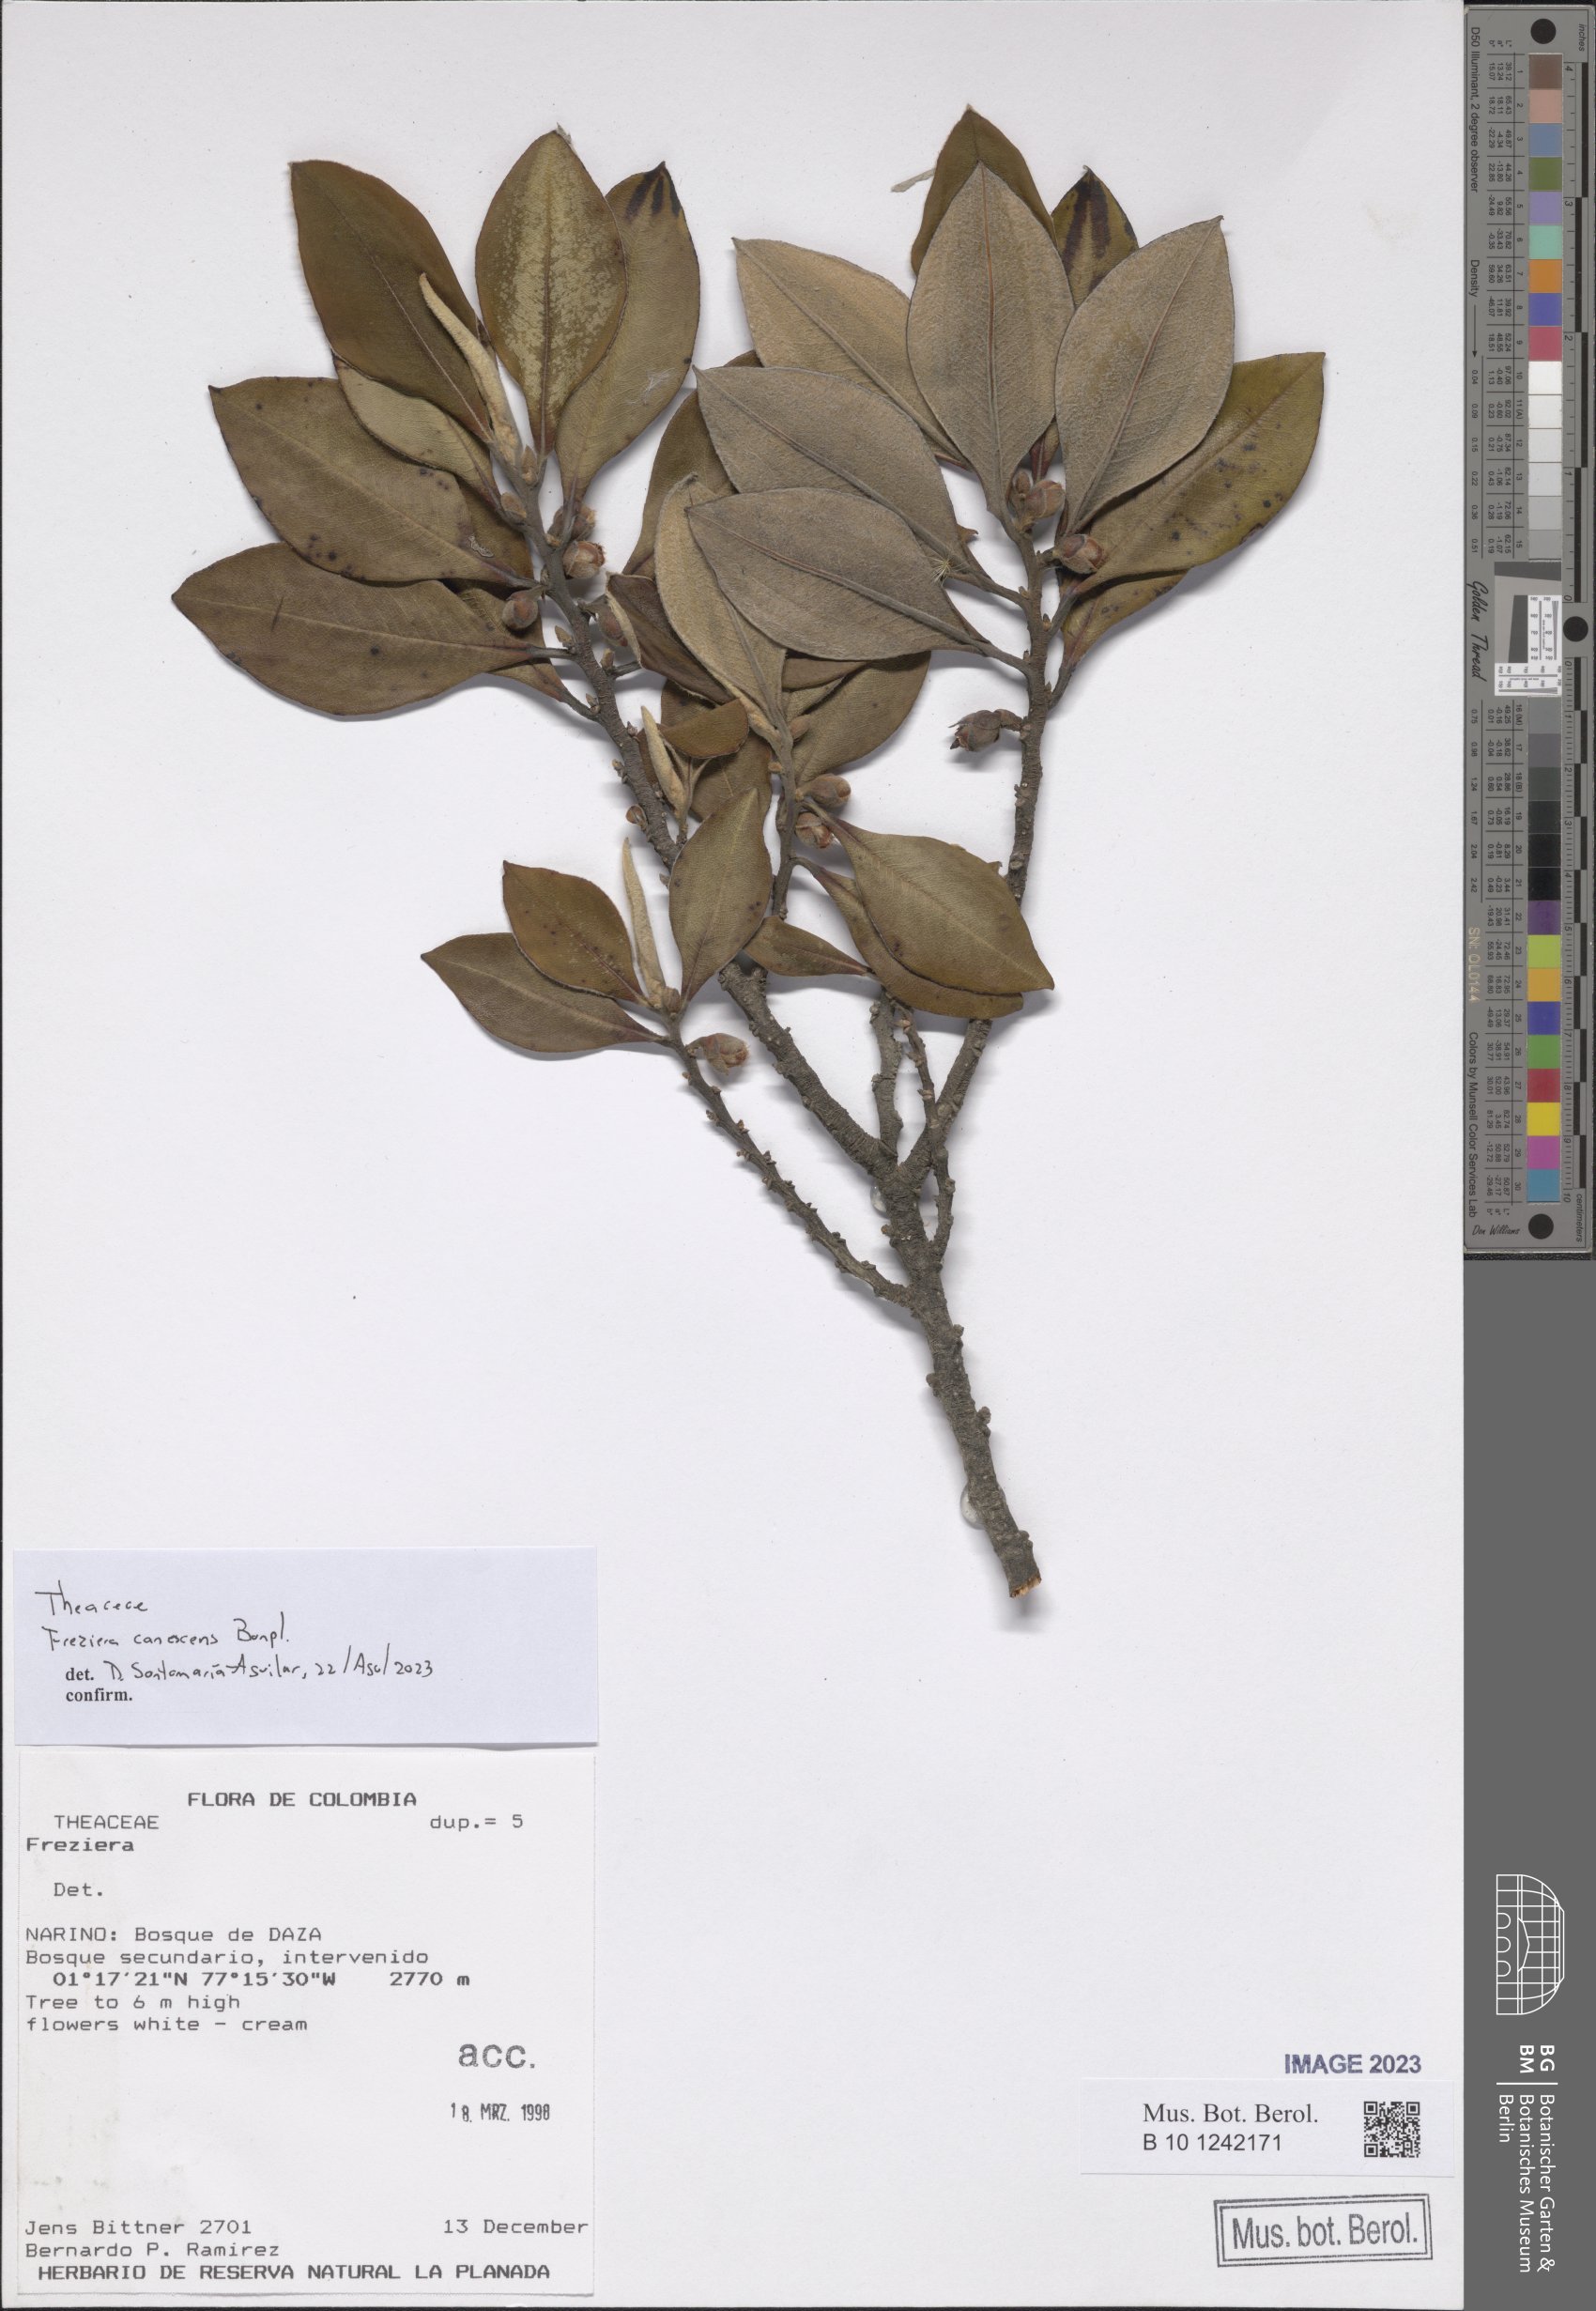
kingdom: Plantae
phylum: Tracheophyta
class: Magnoliopsida
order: Ericales
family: Pentaphylacaceae
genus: Freziera
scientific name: Freziera canescens
